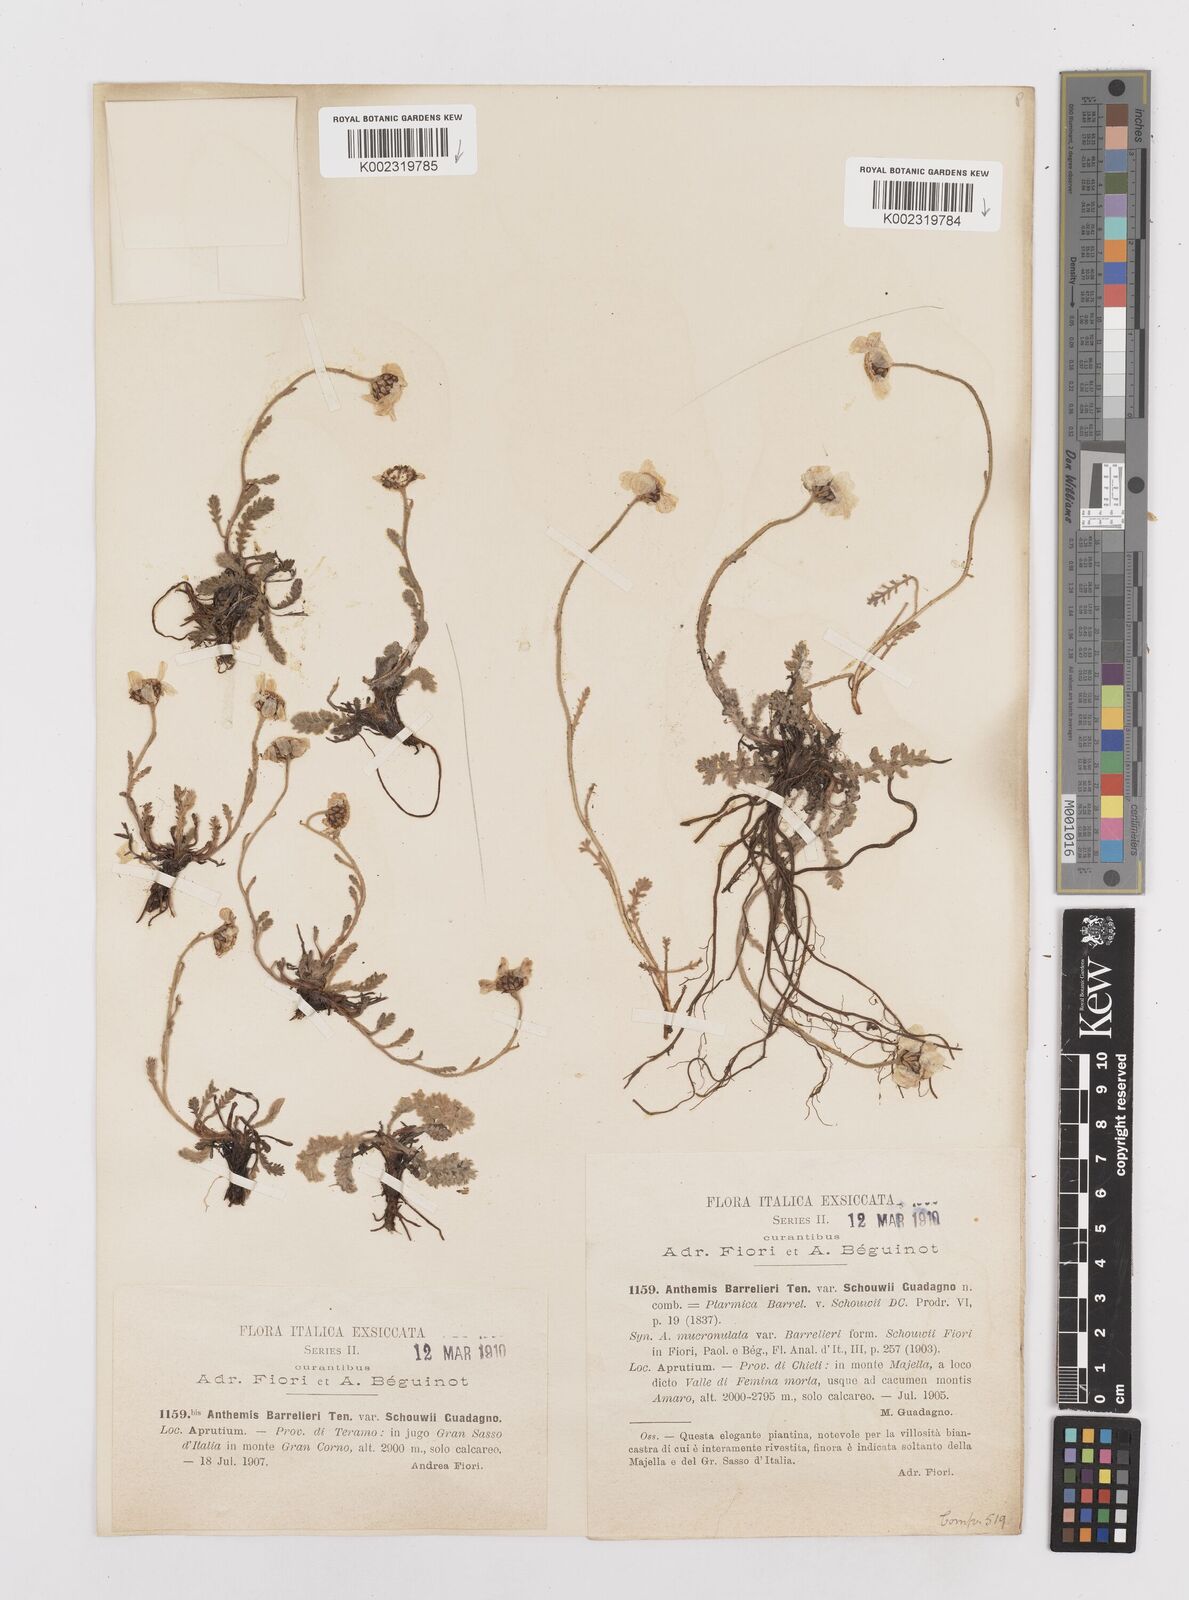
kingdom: Plantae
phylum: Tracheophyta
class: Magnoliopsida
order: Asterales
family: Asteraceae
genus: Achillea
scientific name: Achillea barrelieri
